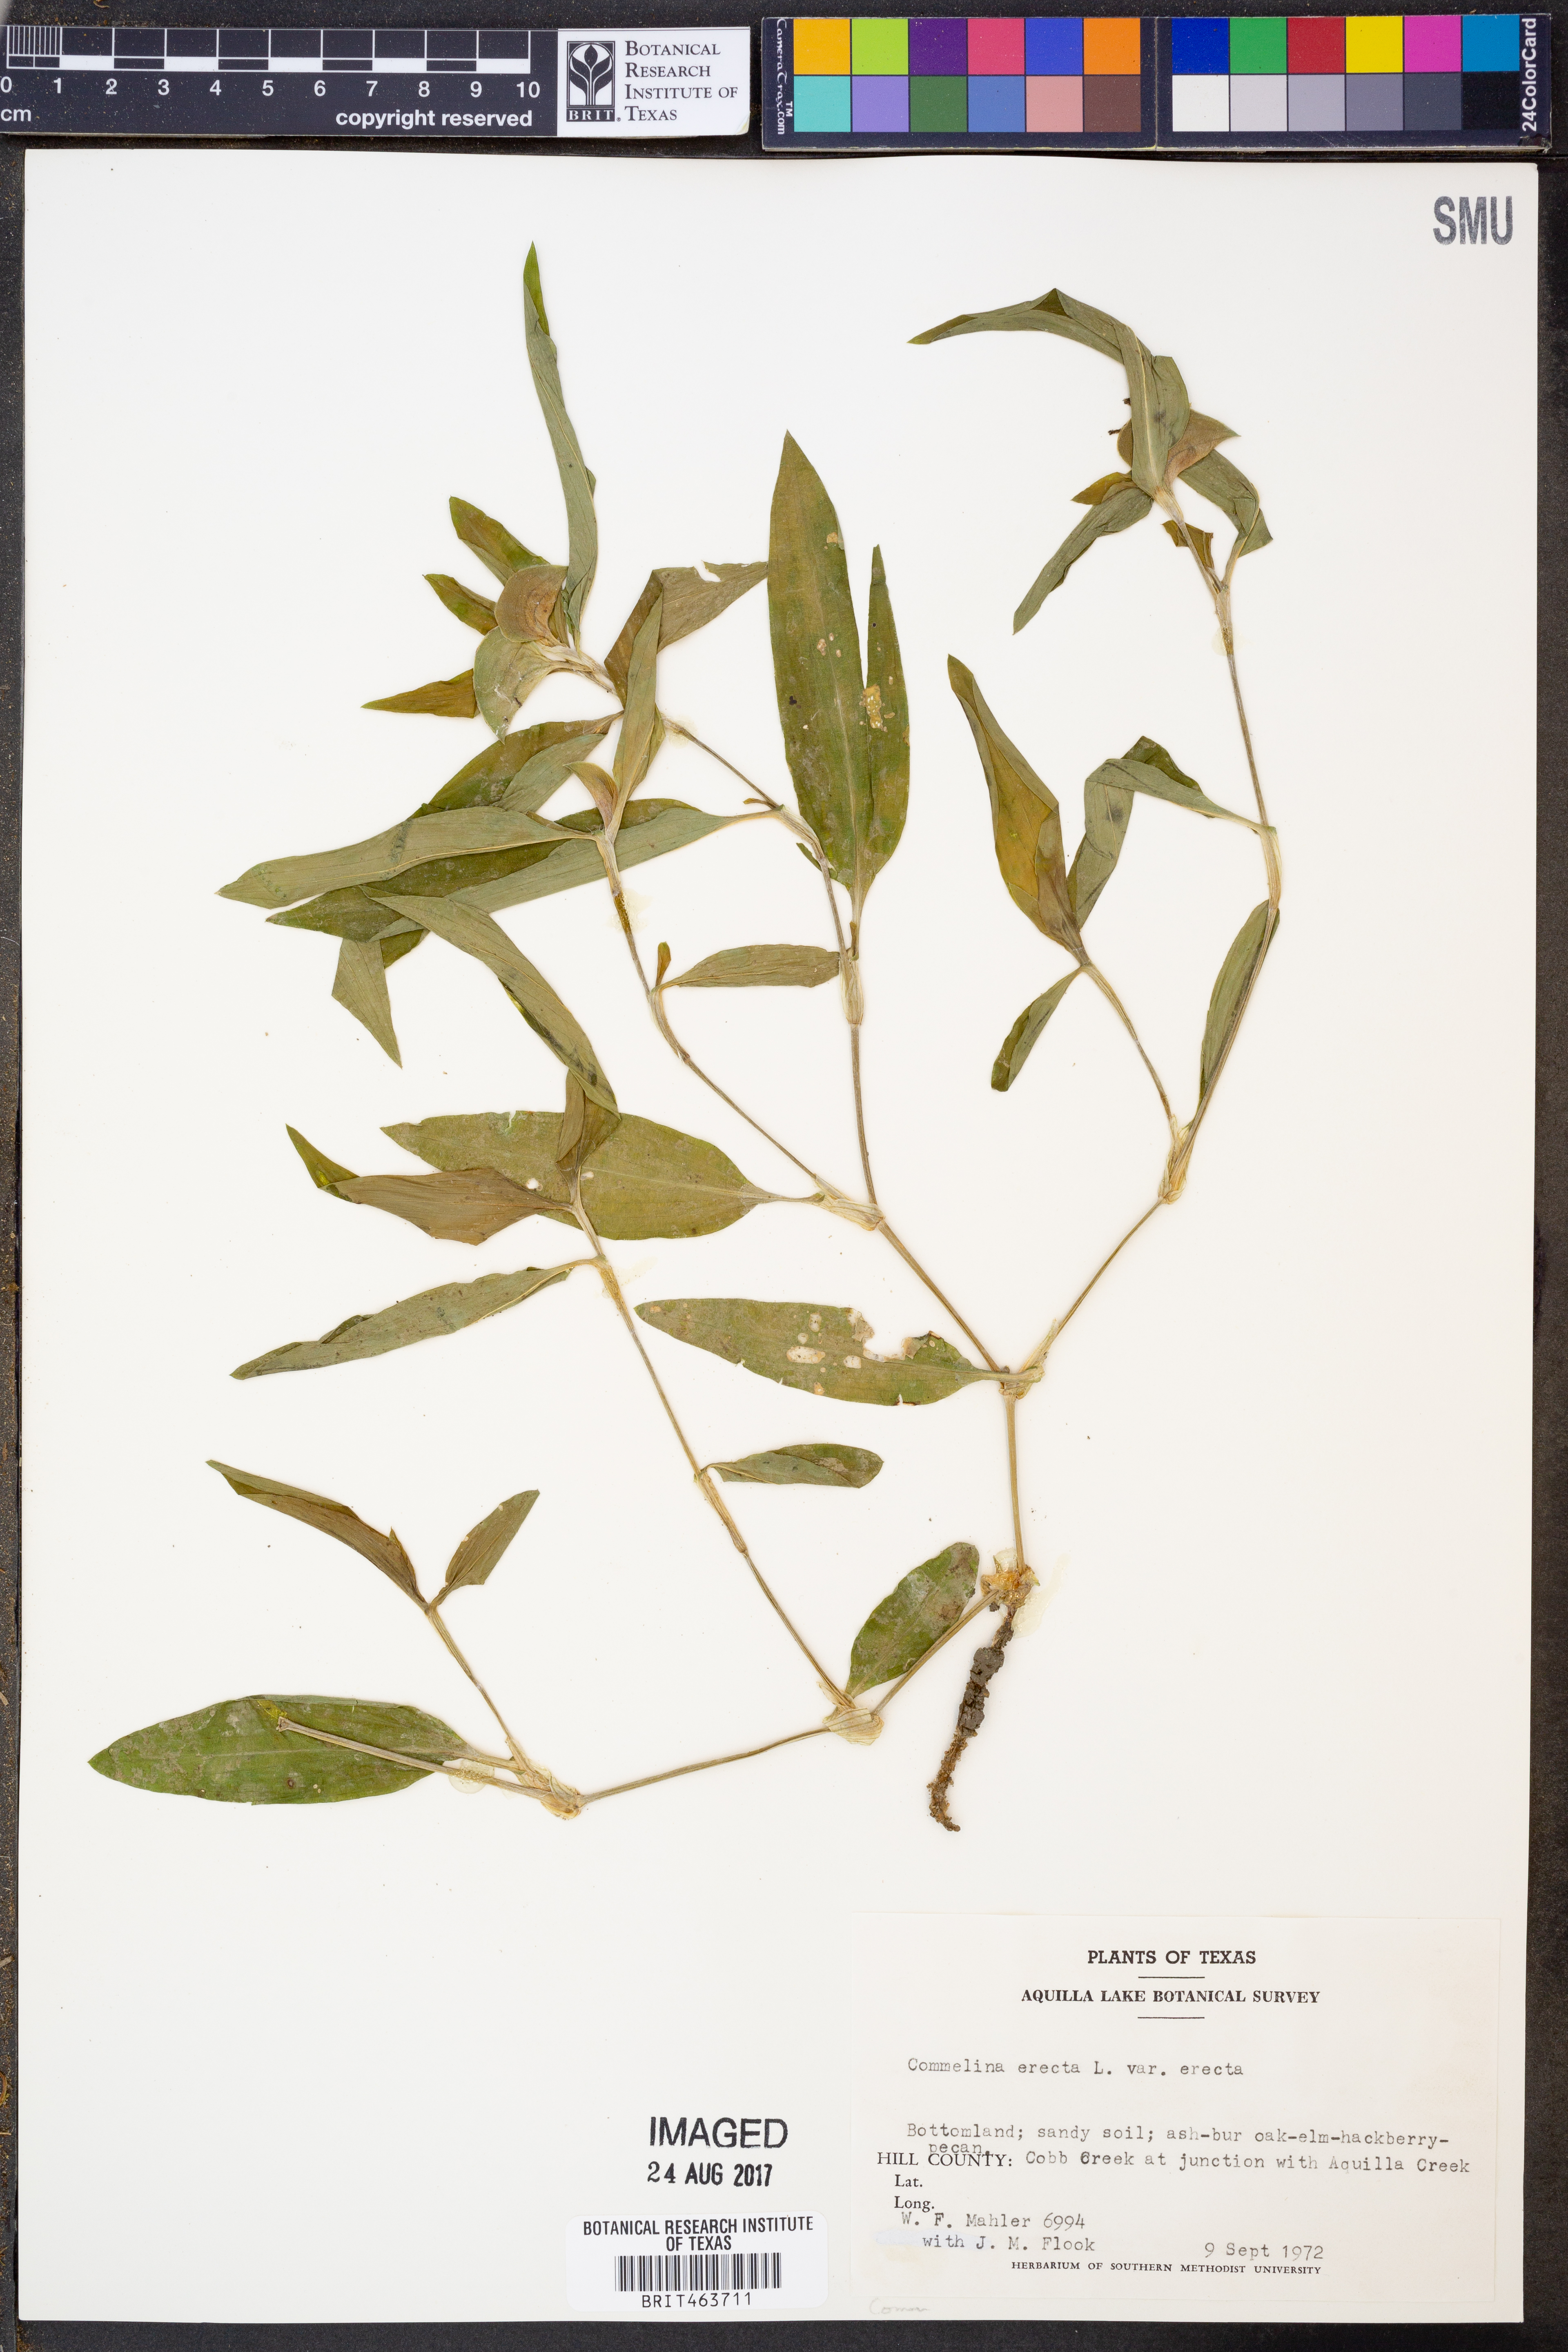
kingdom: Plantae
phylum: Tracheophyta
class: Liliopsida
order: Commelinales
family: Commelinaceae
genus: Commelina
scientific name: Commelina erecta
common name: Blousel blommetjie
